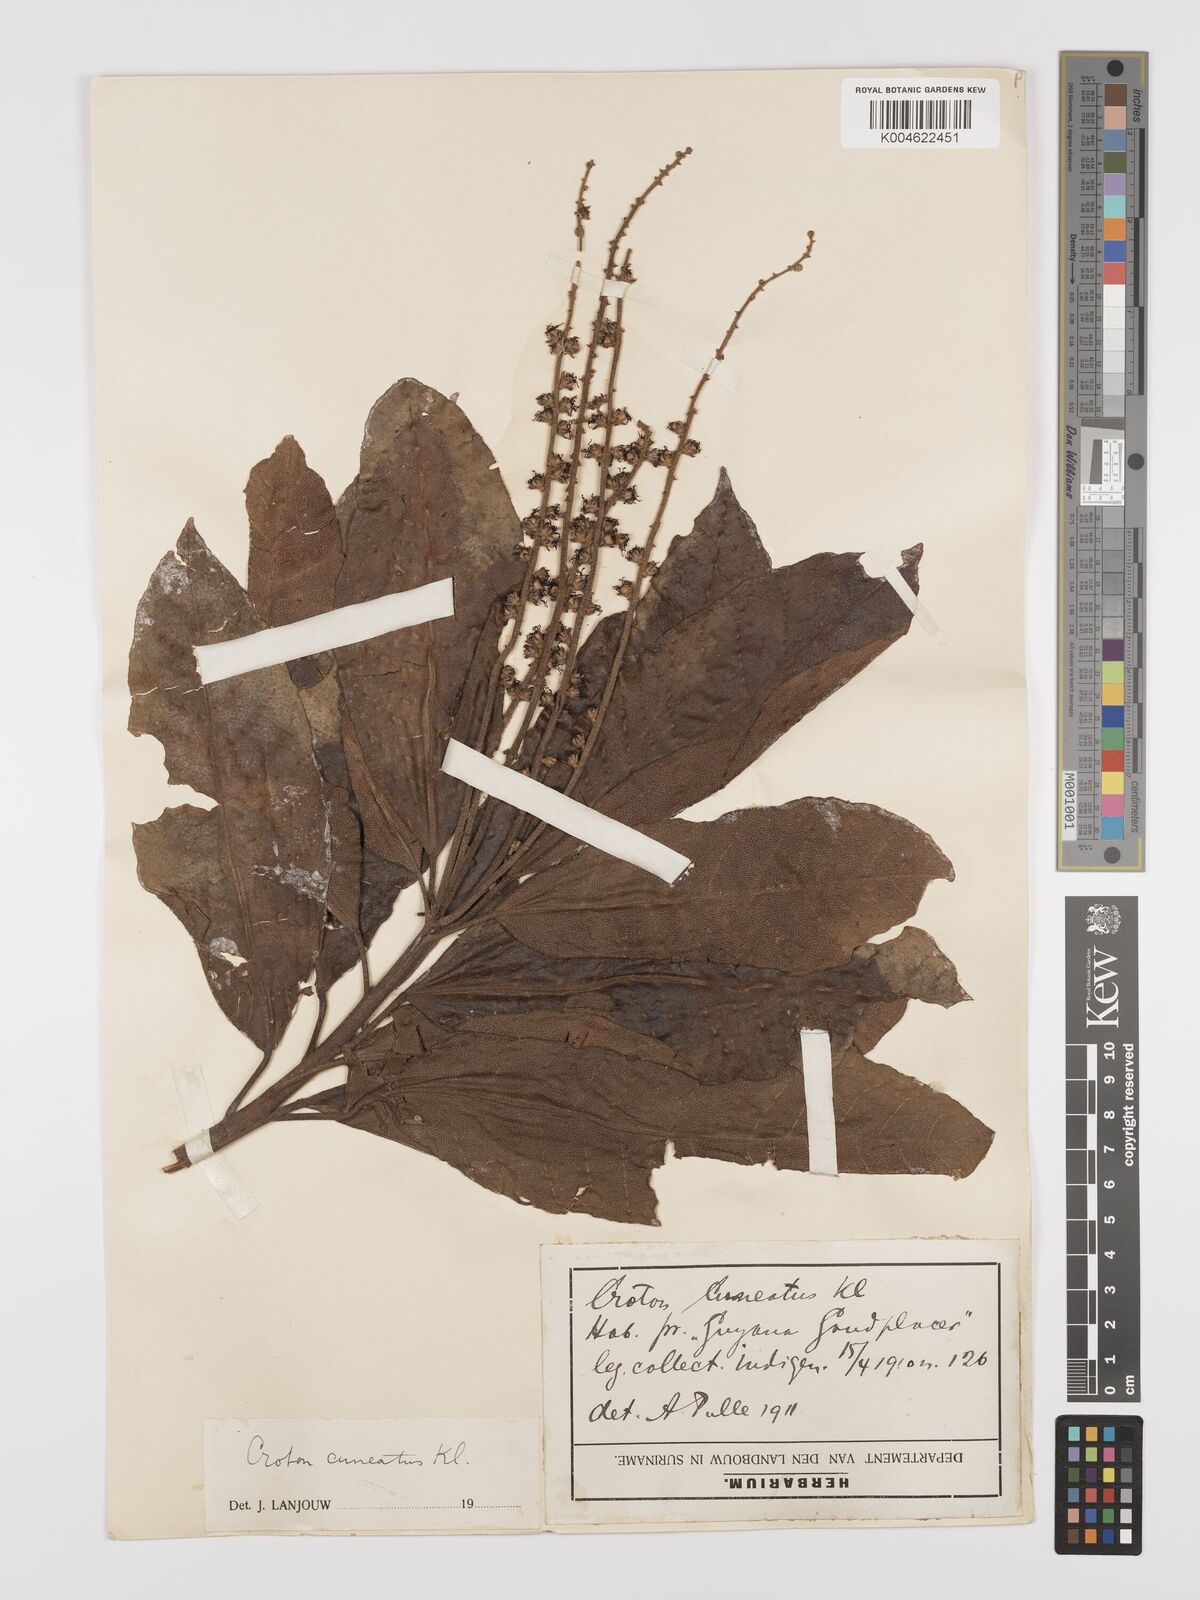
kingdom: Plantae
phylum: Tracheophyta
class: Magnoliopsida
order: Malpighiales
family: Euphorbiaceae
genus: Croton
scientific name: Croton
